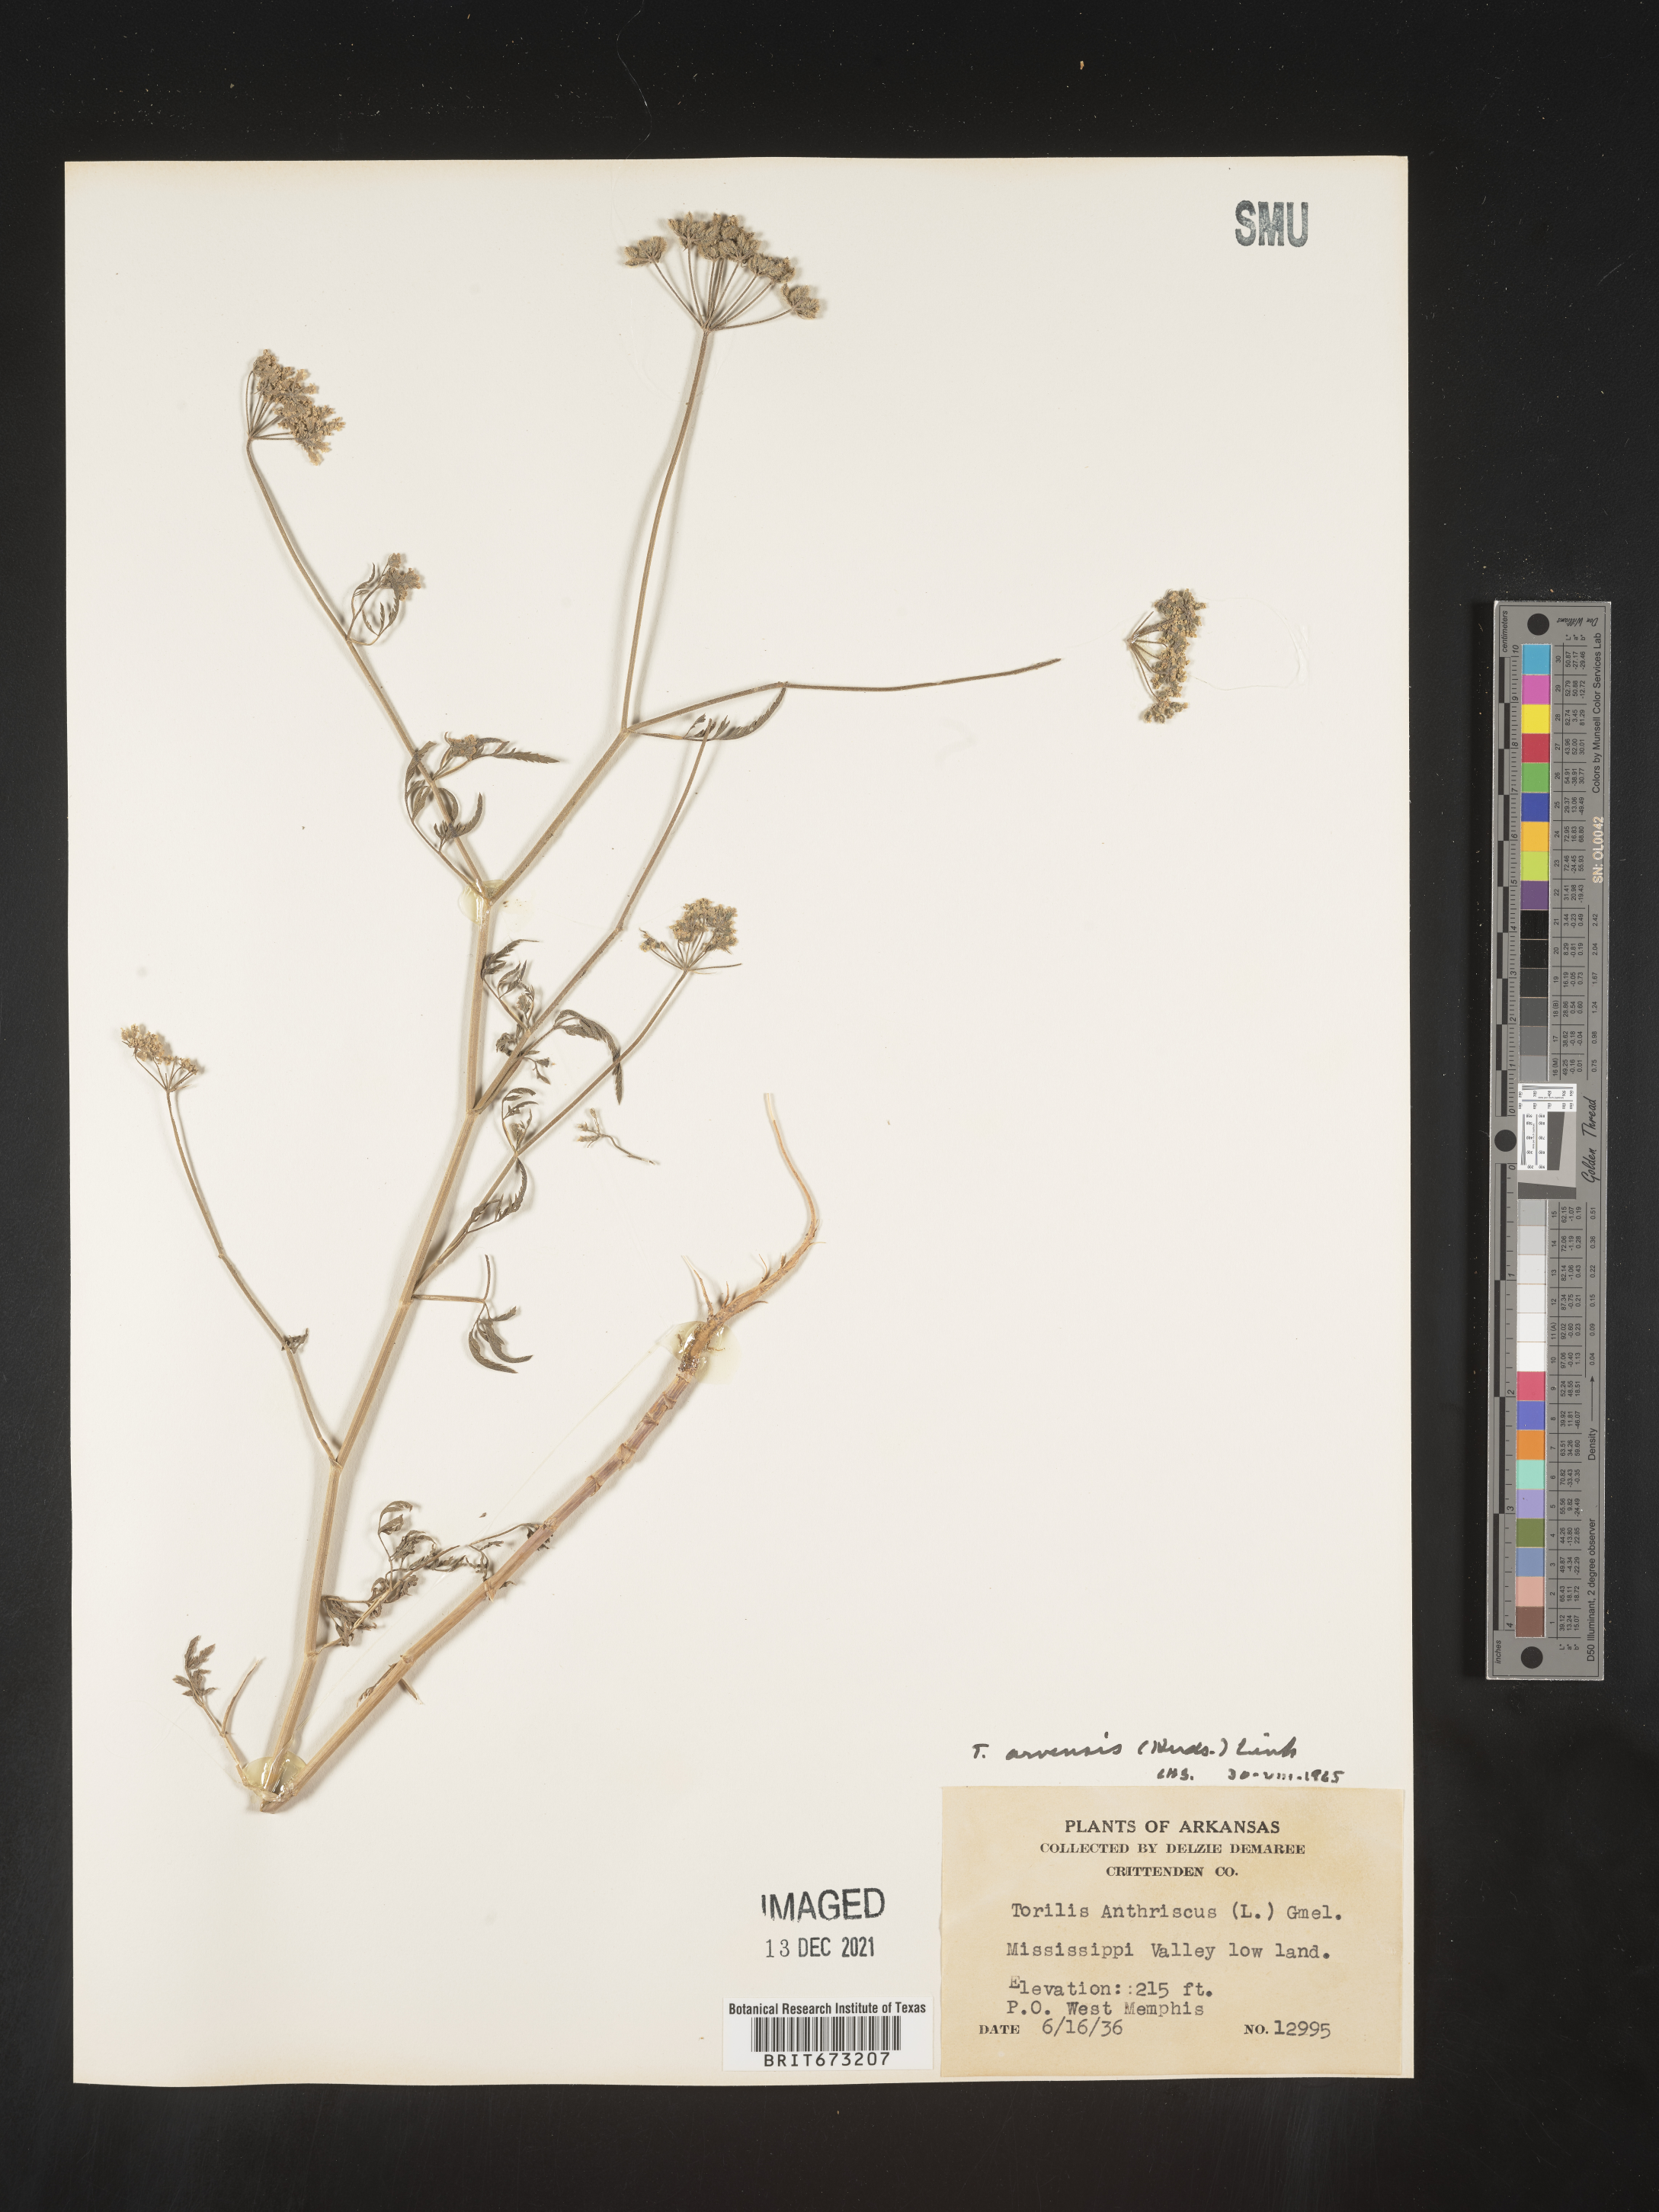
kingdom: Plantae
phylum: Tracheophyta
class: Magnoliopsida
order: Apiales
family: Apiaceae
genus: Torilis
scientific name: Torilis arvensis
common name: Spreading hedge-parsley
